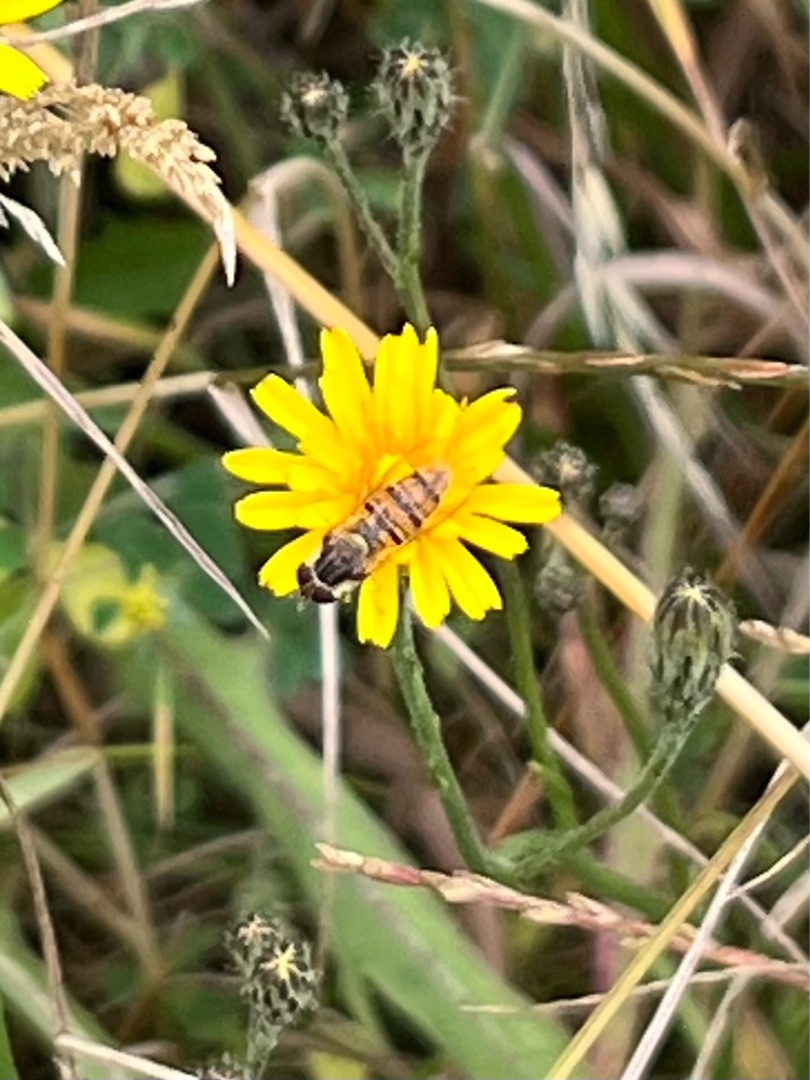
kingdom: Animalia
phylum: Arthropoda
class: Insecta
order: Diptera
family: Syrphidae
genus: Episyrphus
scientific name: Episyrphus balteatus
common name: Dobbeltbåndet svirreflue
